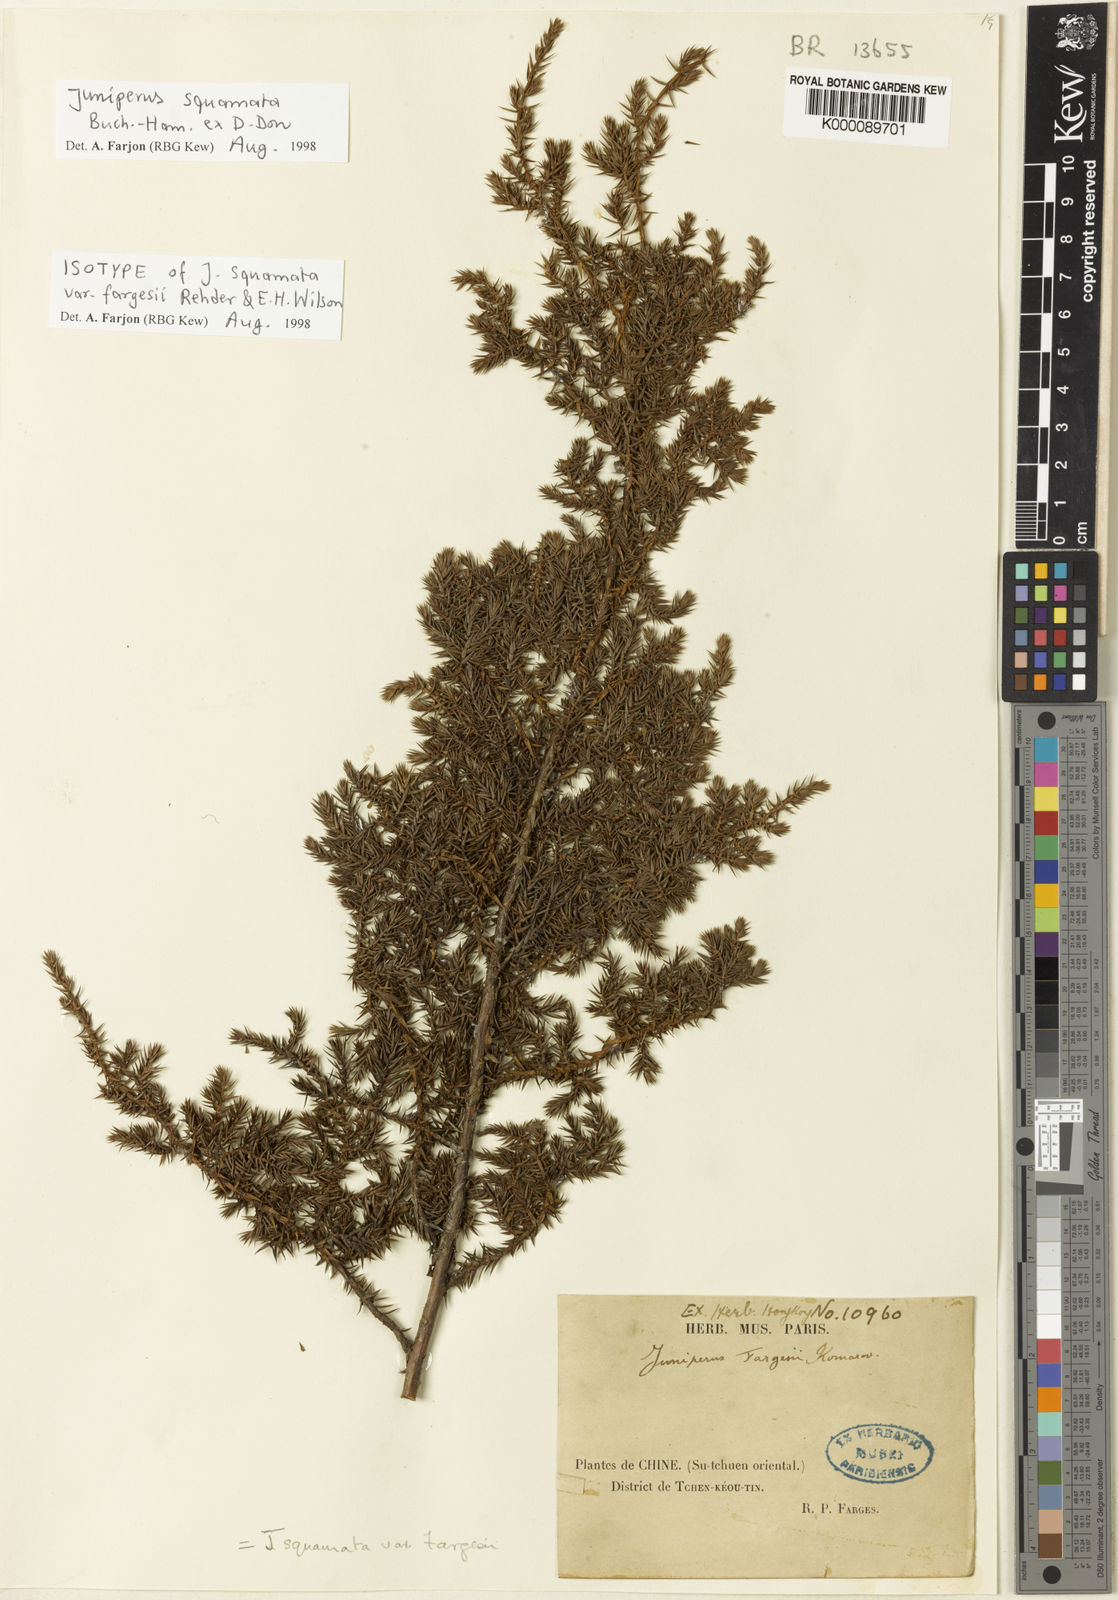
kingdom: Plantae
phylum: Tracheophyta
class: Pinopsida
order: Pinales
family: Cupressaceae
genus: Juniperus
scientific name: Juniperus squamata
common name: Flaky juniper
